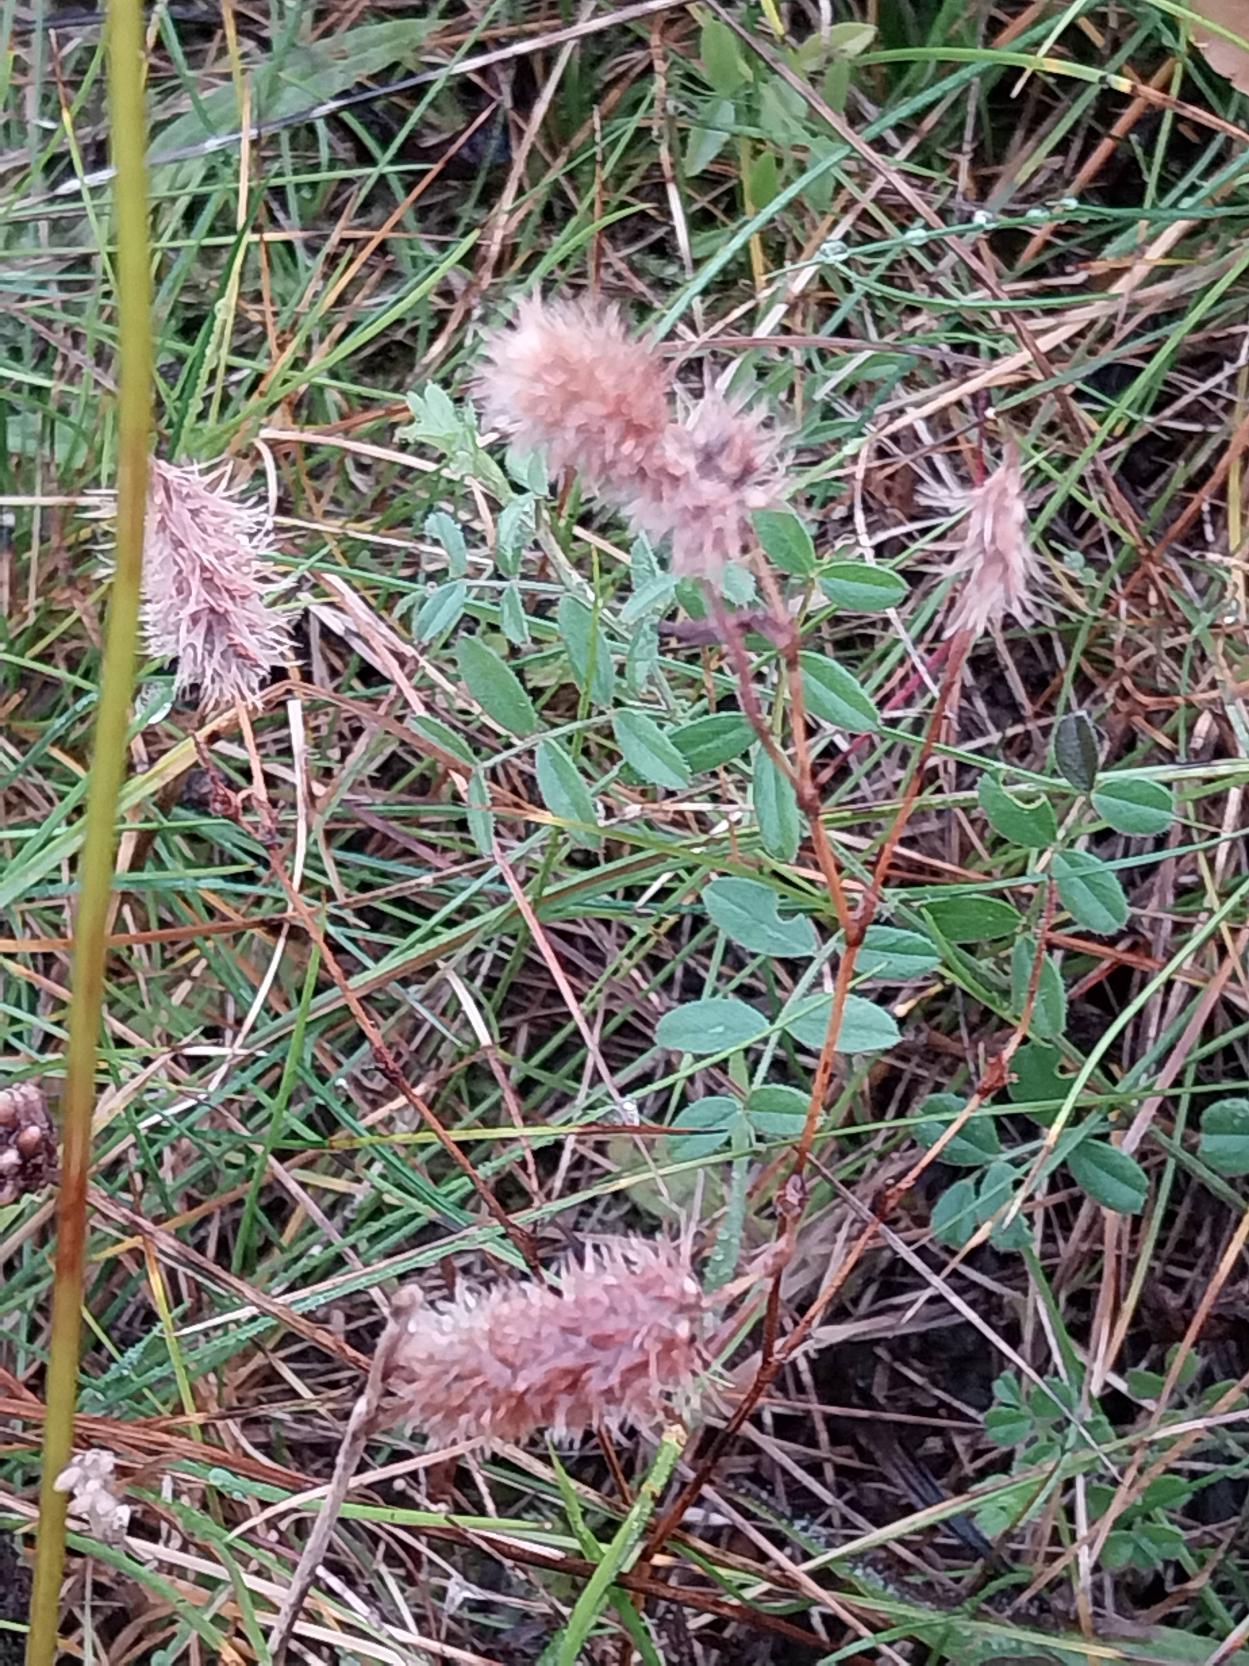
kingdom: Plantae
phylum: Tracheophyta
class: Magnoliopsida
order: Fabales
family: Fabaceae
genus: Trifolium
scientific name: Trifolium arvense
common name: Hare-kløver
